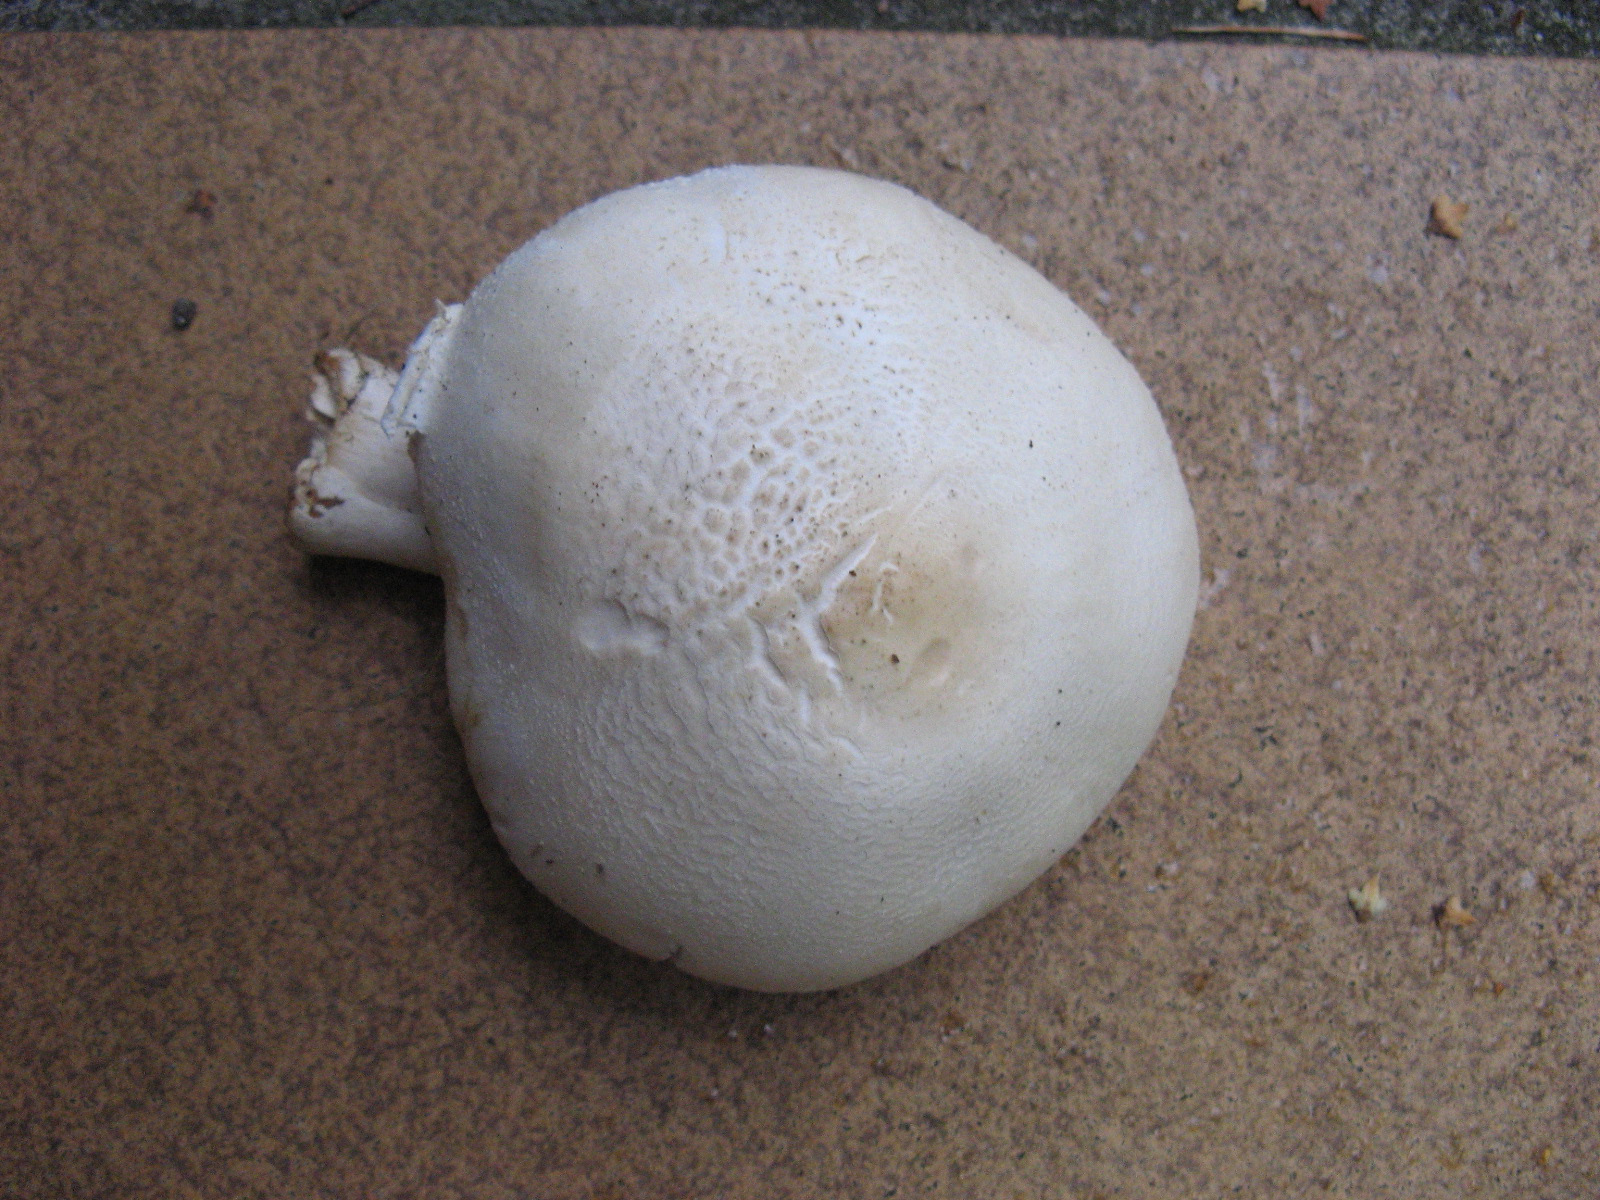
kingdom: Fungi
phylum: Basidiomycota
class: Agaricomycetes
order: Agaricales
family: Agaricaceae
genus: Leucoagaricus
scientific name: Leucoagaricus leucothites
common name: rosabladet silkehat
